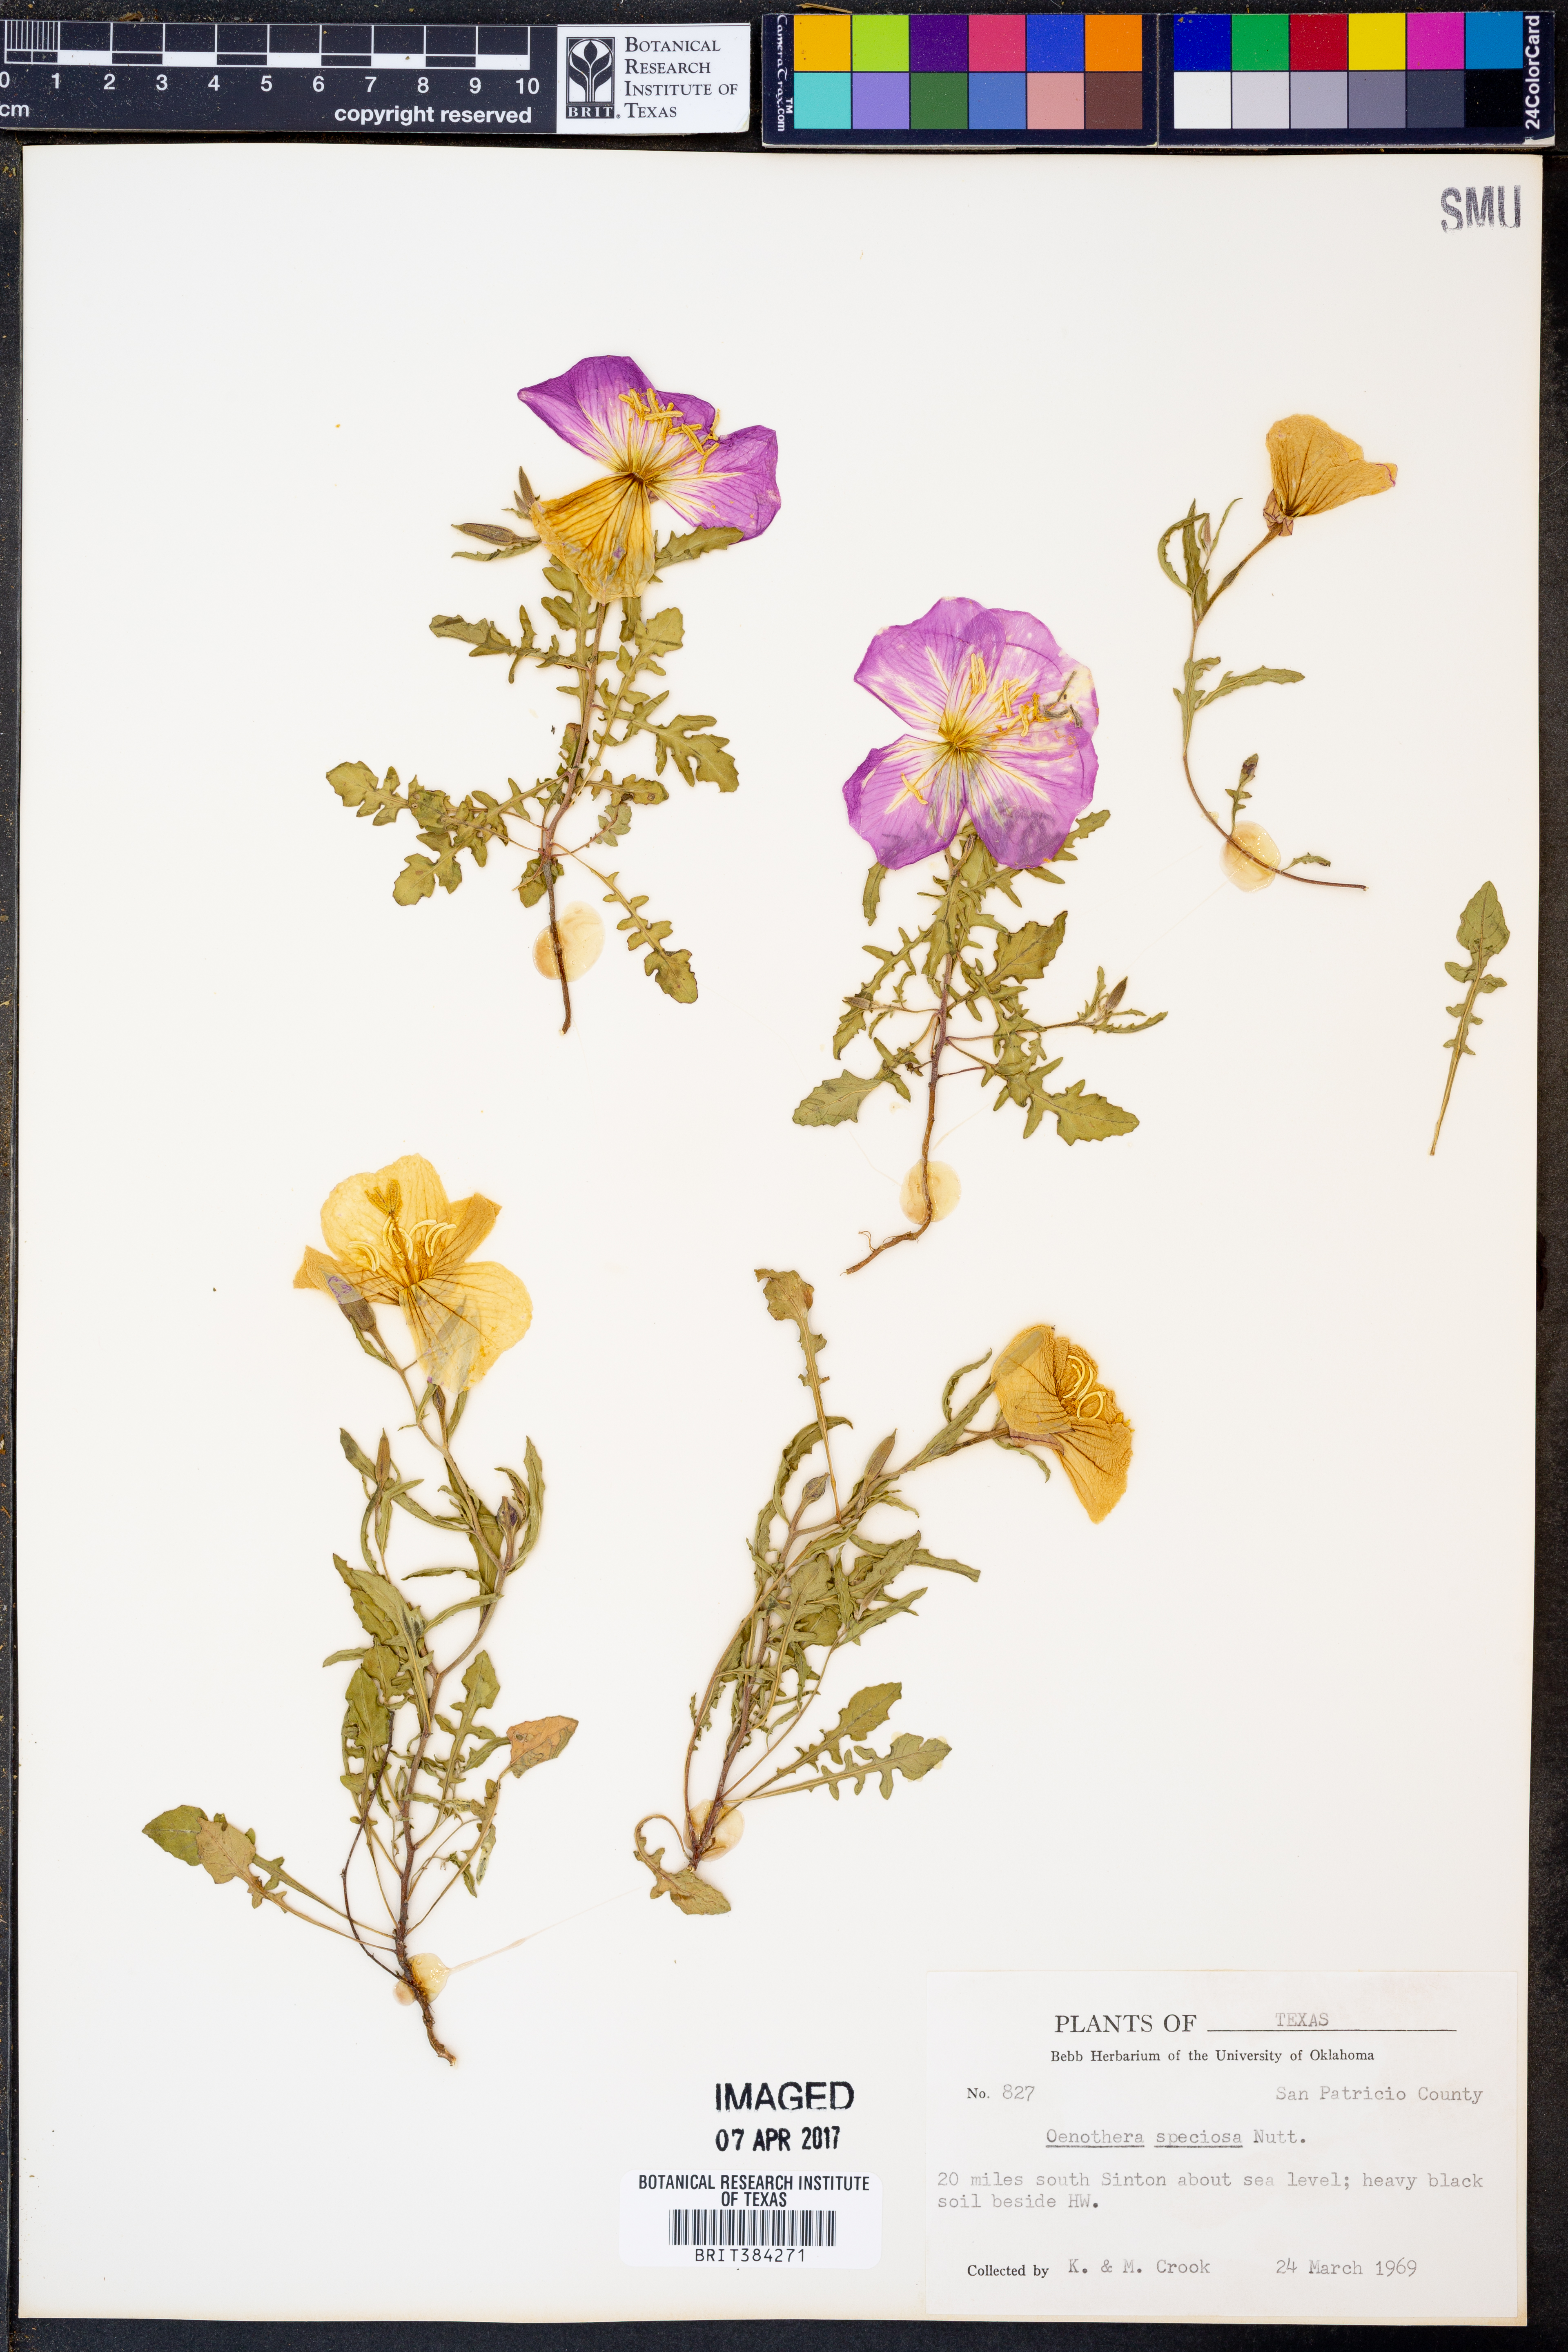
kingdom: Plantae
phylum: Tracheophyta
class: Magnoliopsida
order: Myrtales
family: Onagraceae
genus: Oenothera
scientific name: Oenothera speciosa
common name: White evening-primrose
